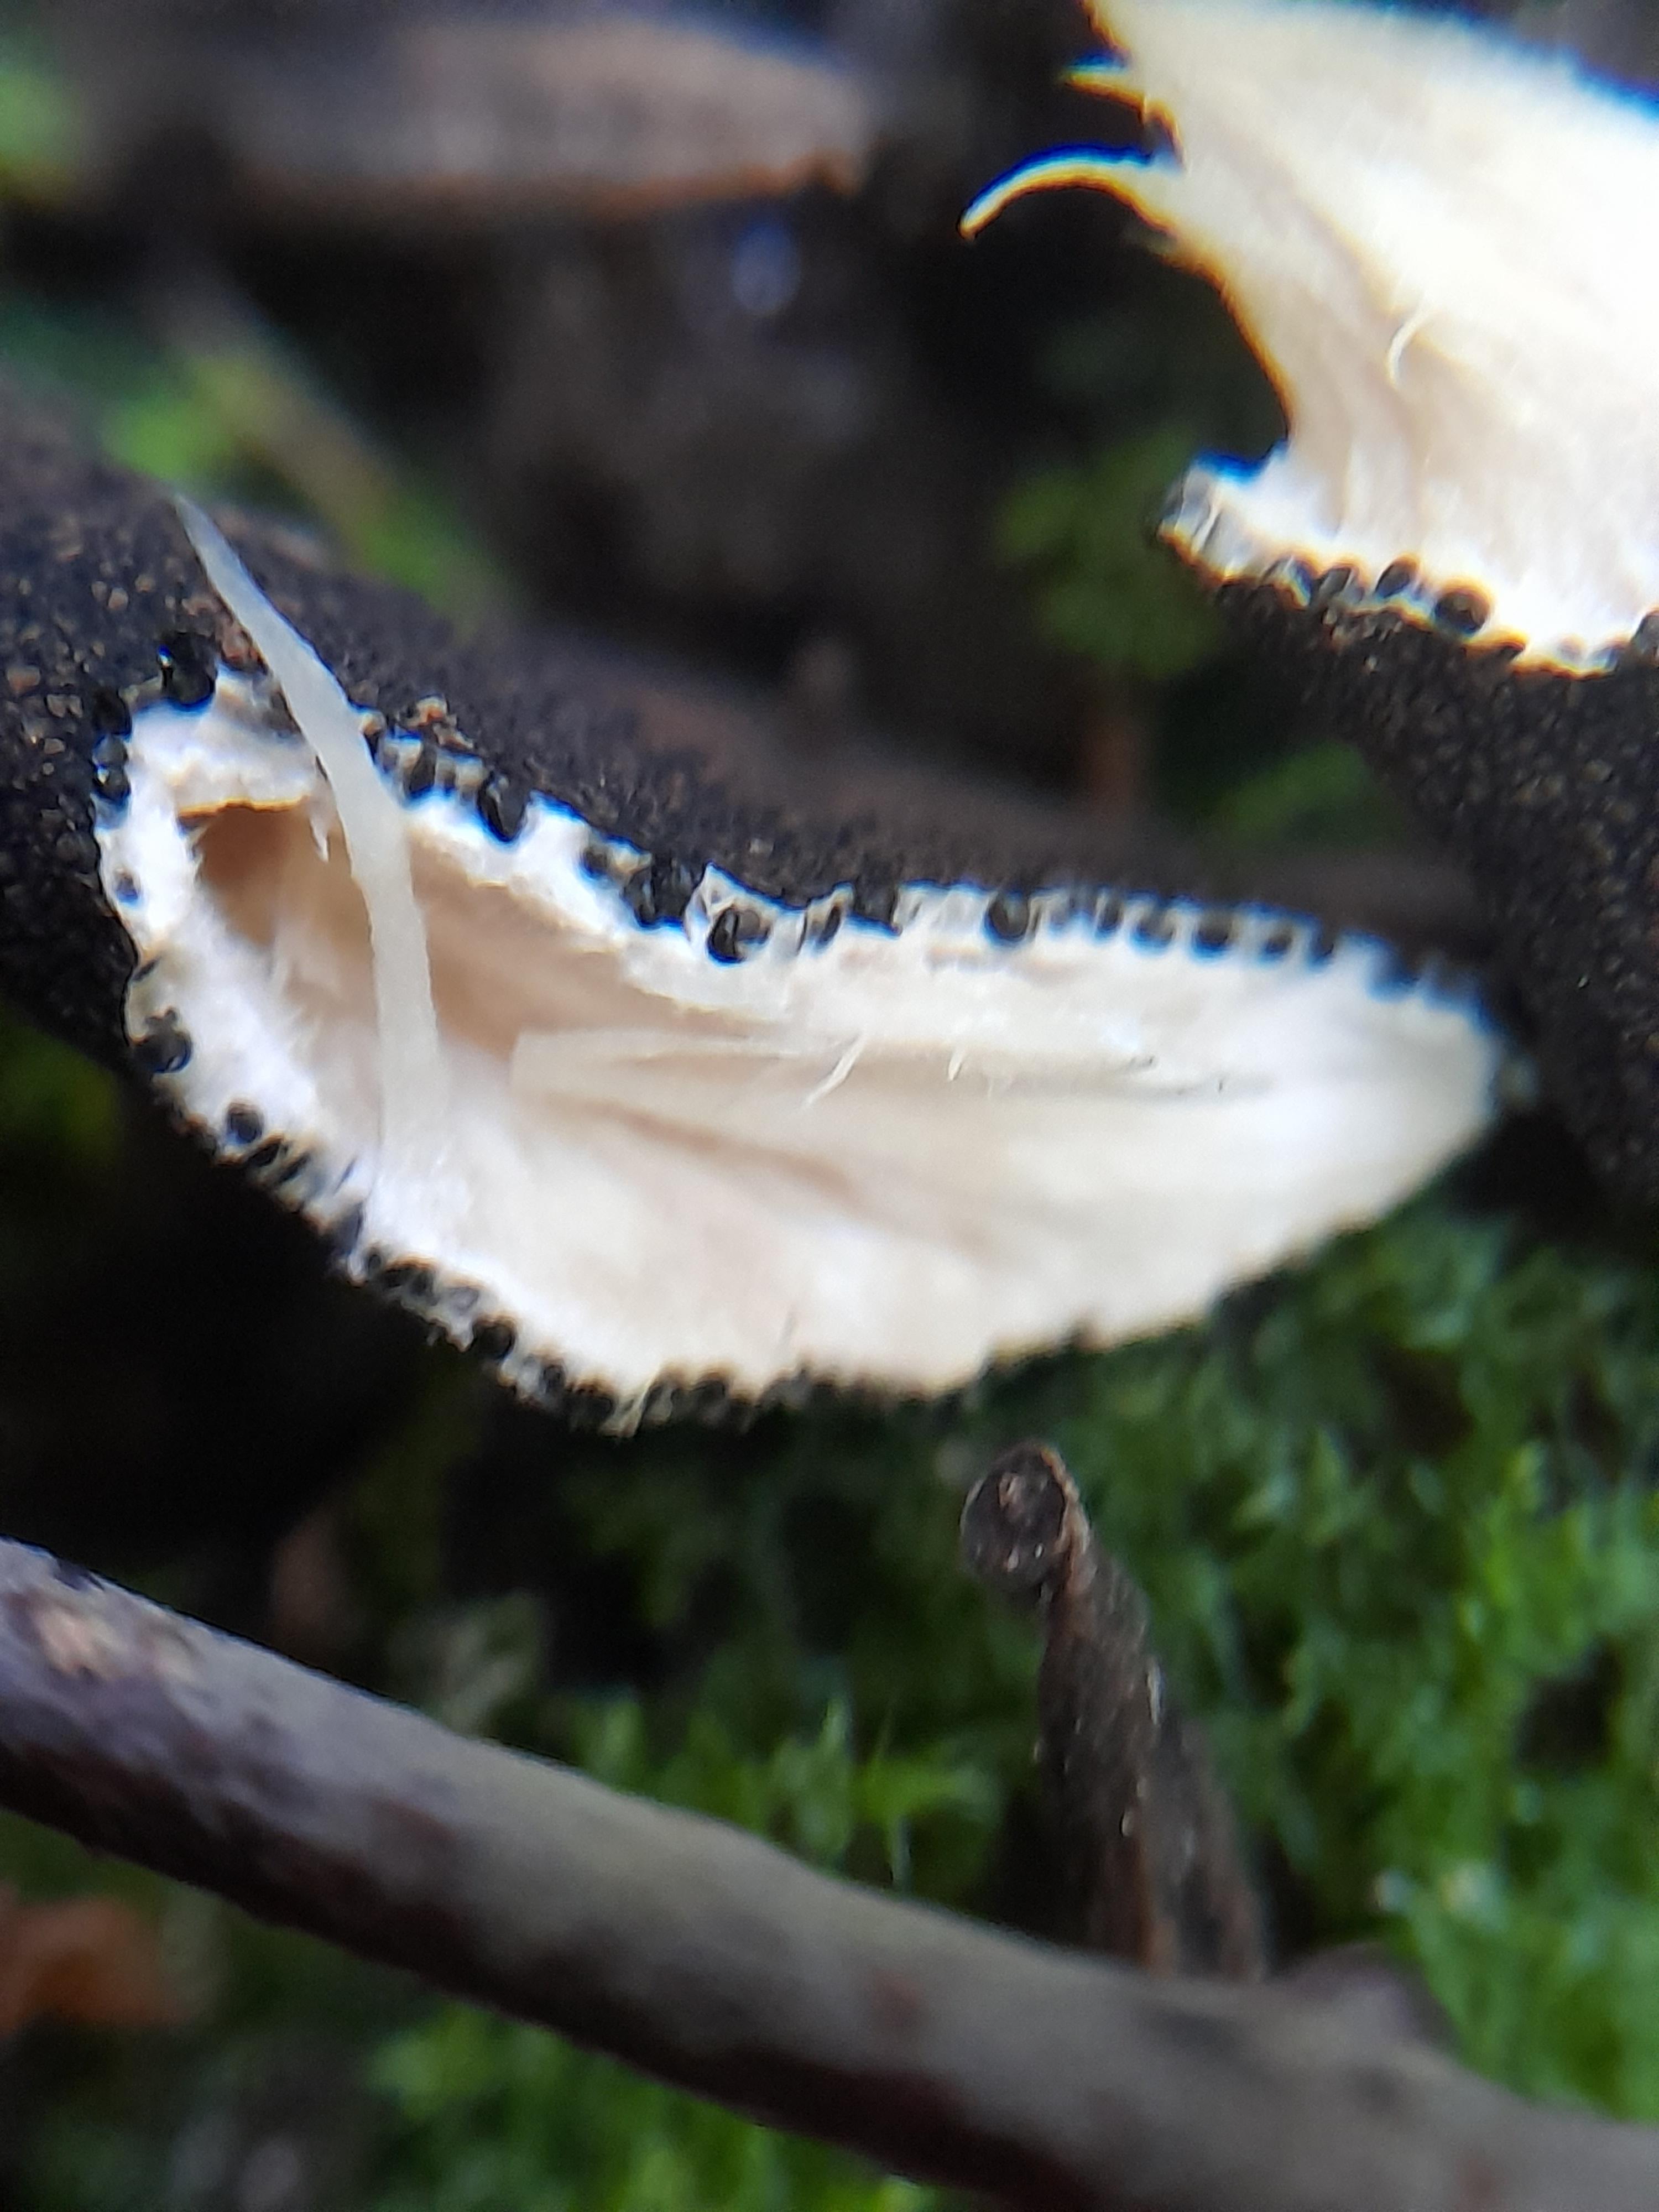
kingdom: Fungi
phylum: Ascomycota
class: Sordariomycetes
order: Xylariales
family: Xylariaceae
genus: Xylaria
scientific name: Xylaria longipes
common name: slank stødsvamp
